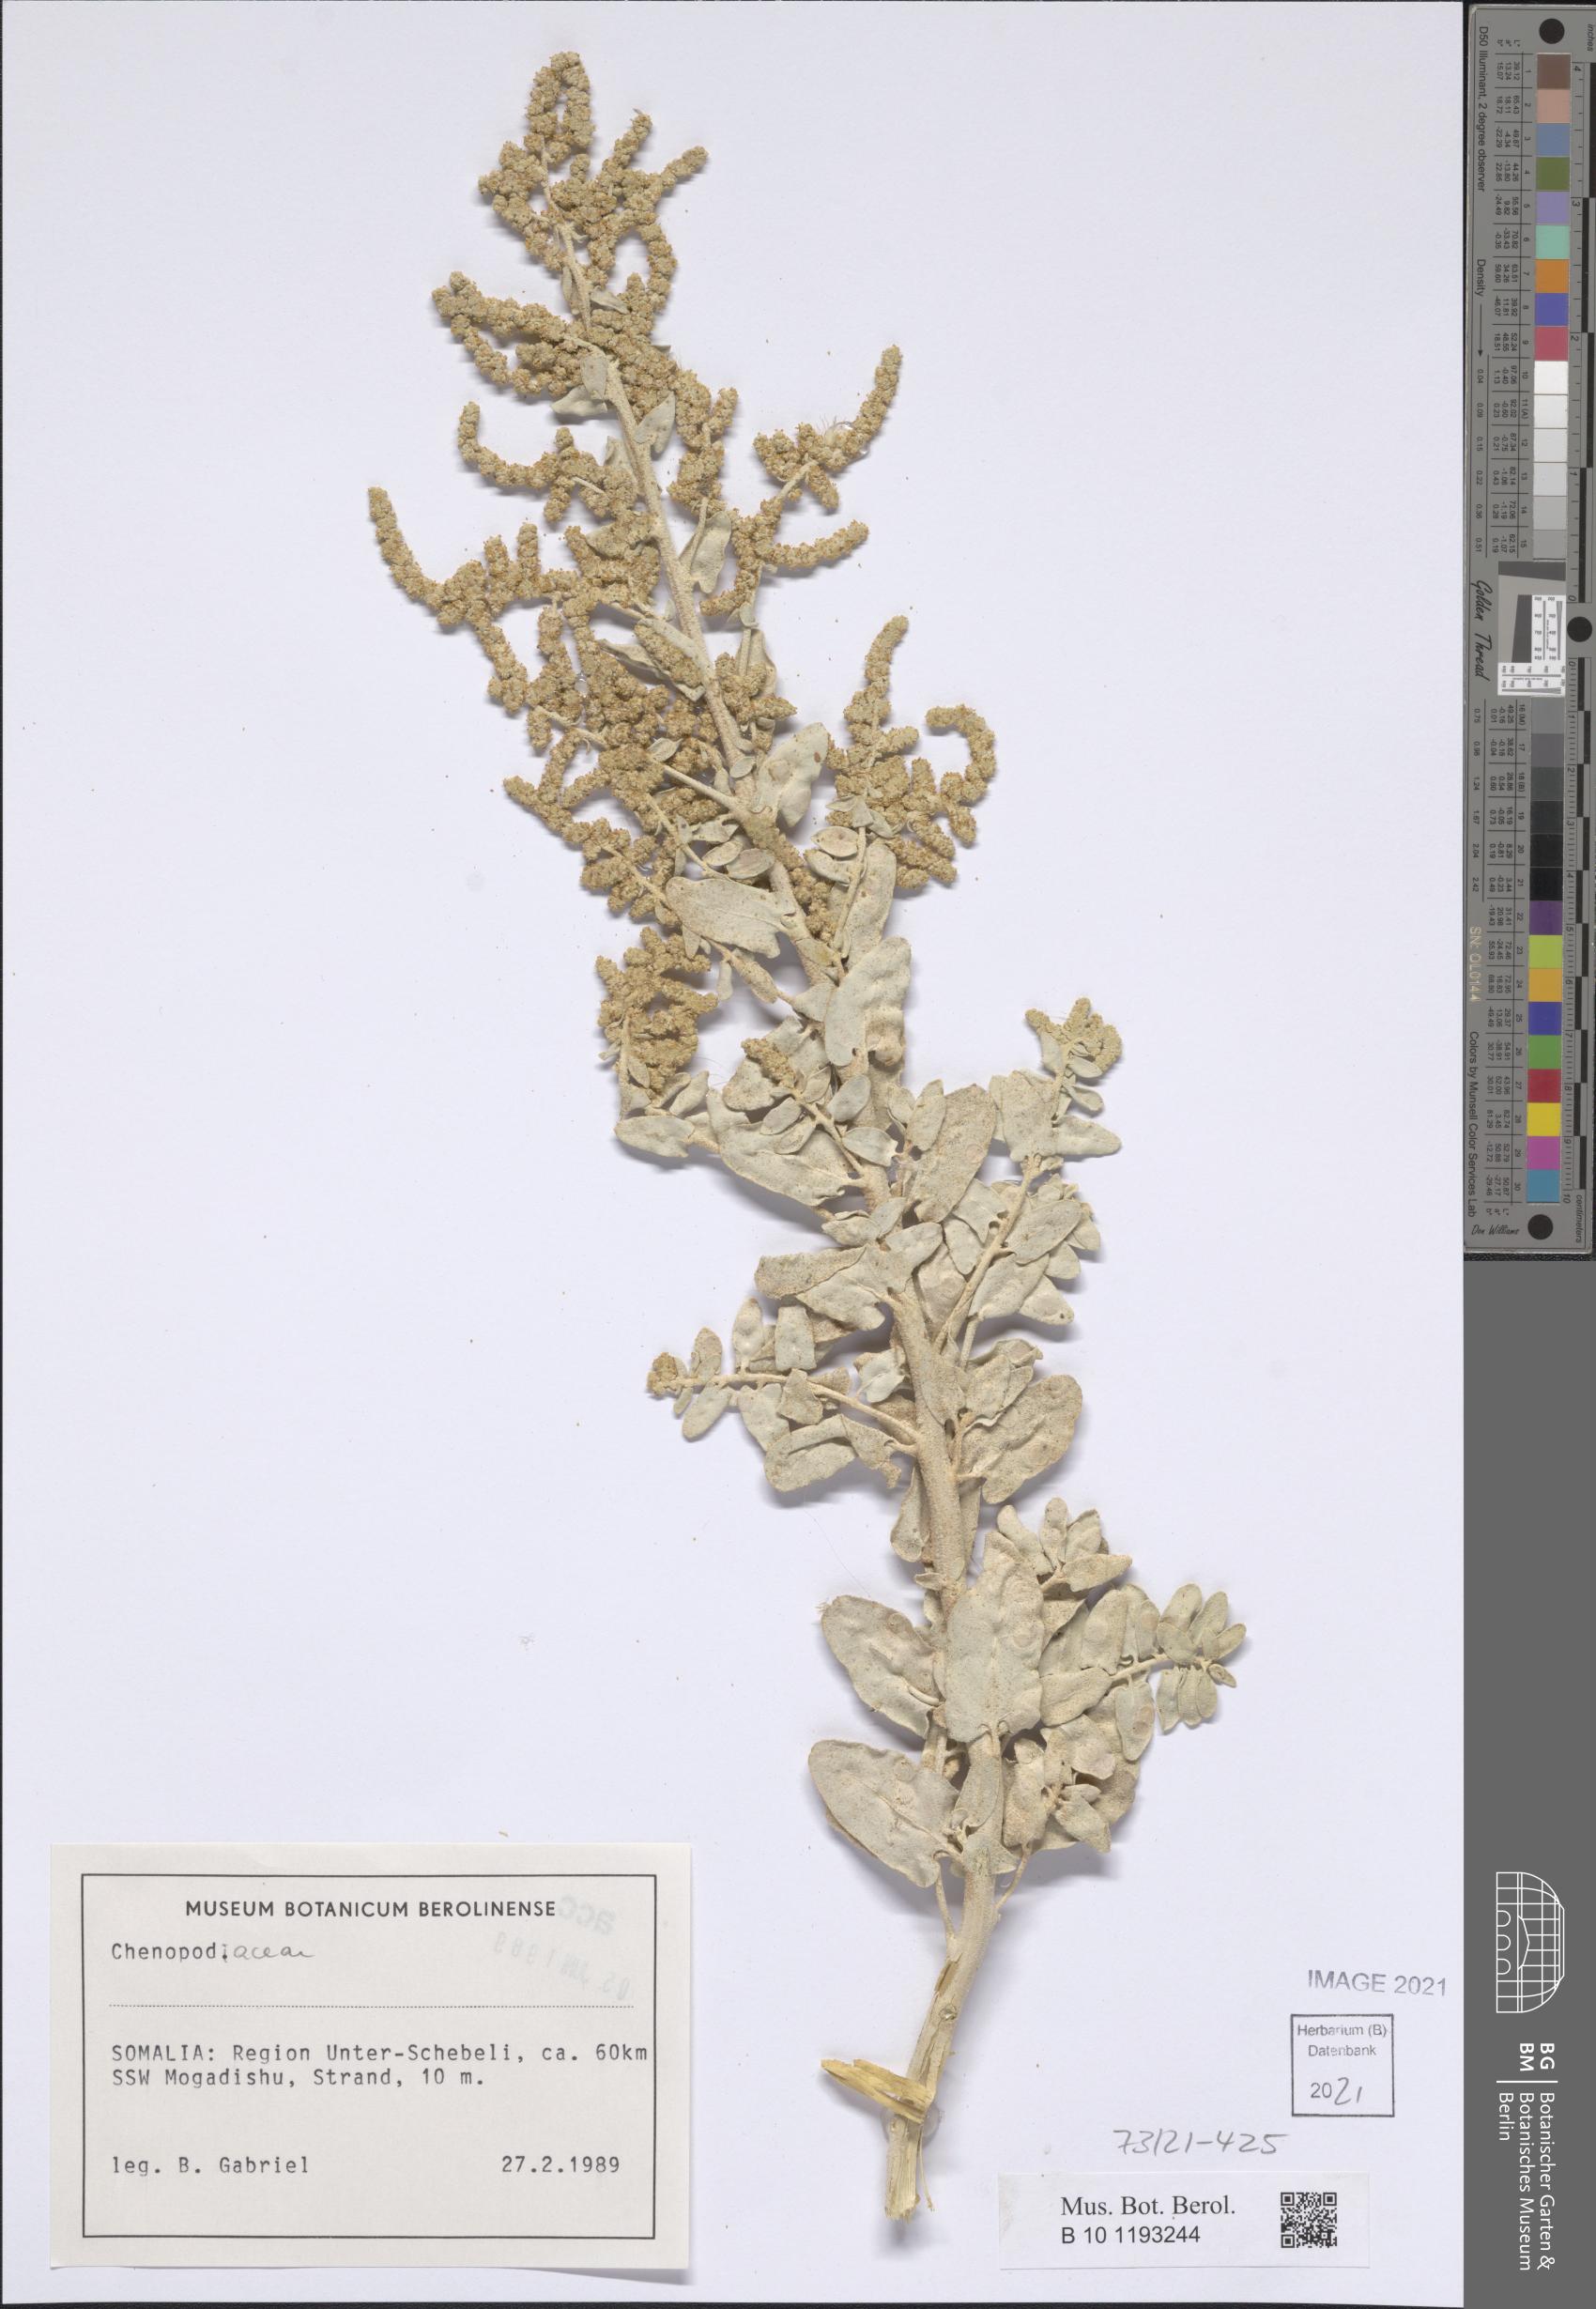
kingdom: Plantae
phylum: Tracheophyta
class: Magnoliopsida
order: Caryophyllales
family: Amaranthaceae
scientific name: Amaranthaceae
